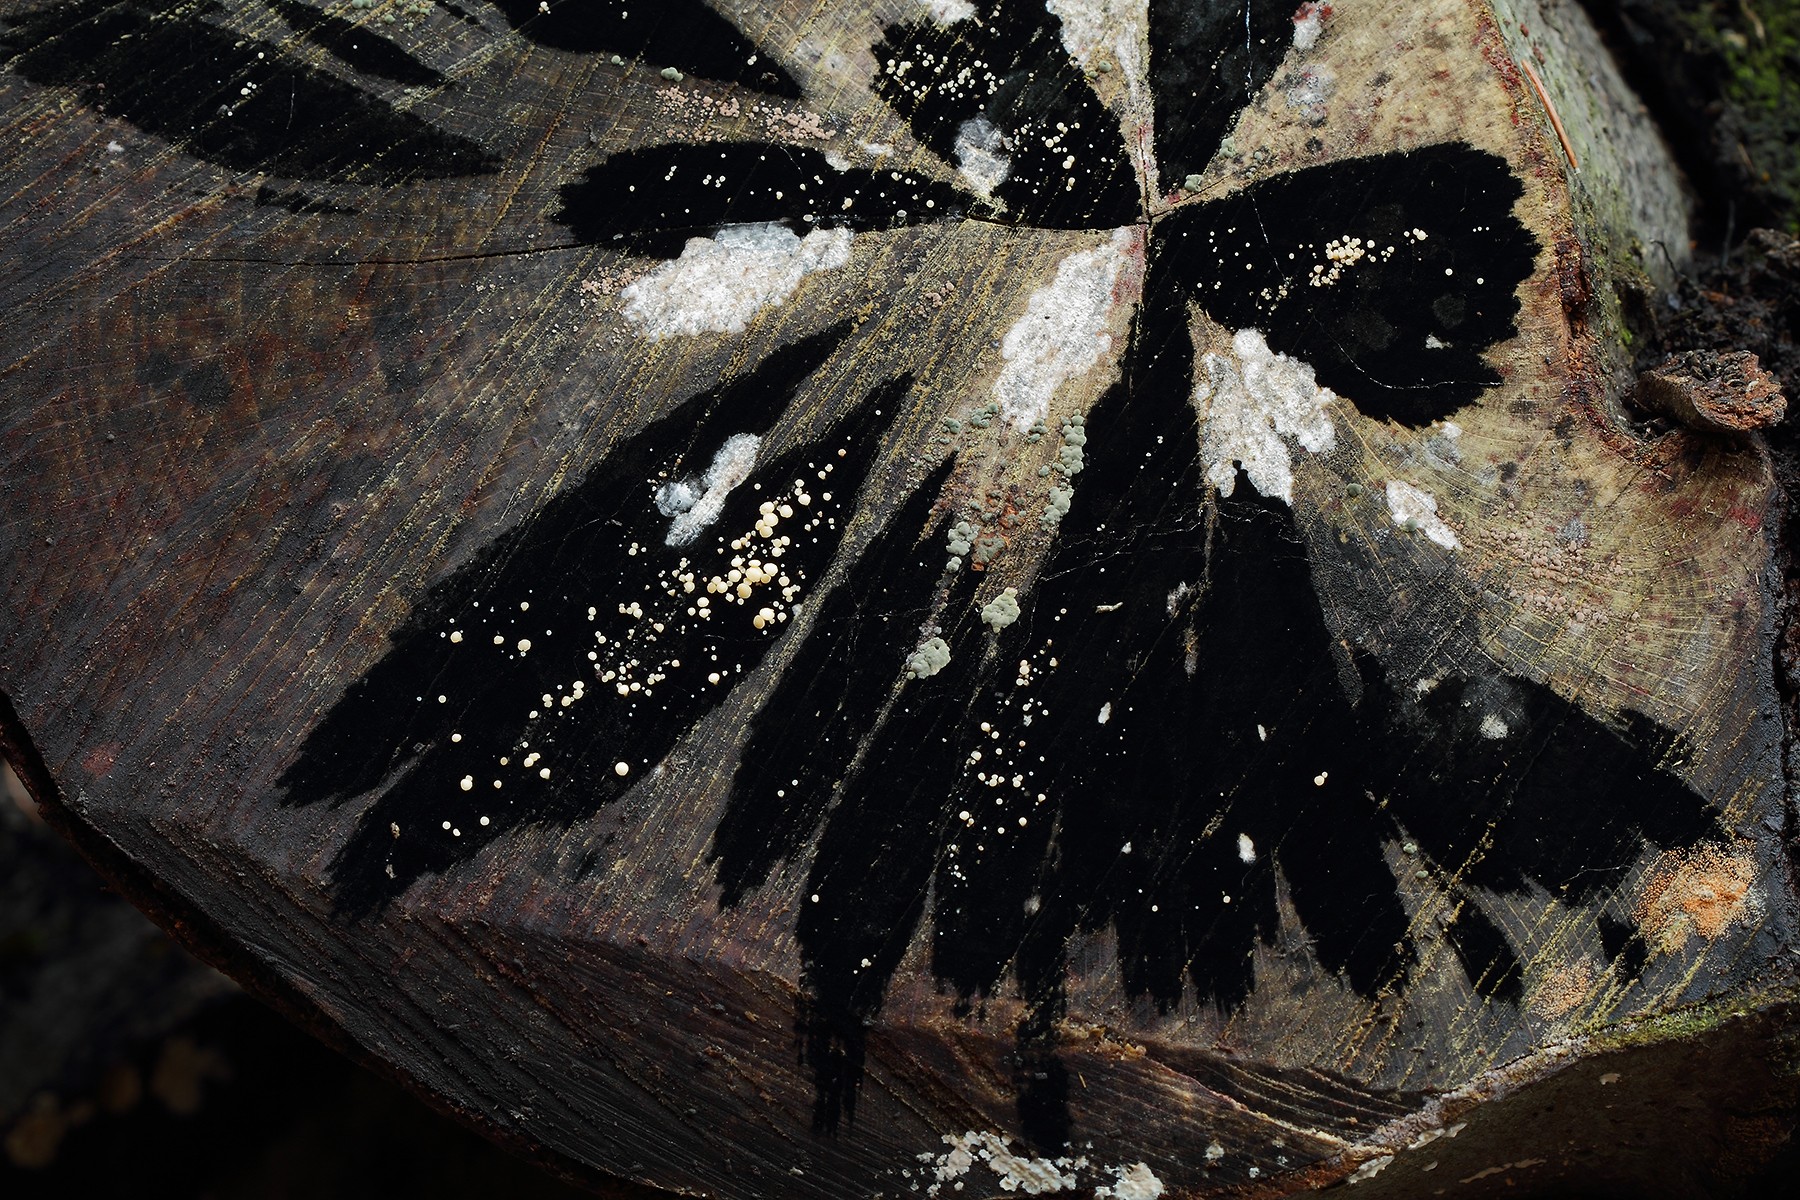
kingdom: Fungi
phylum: Ascomycota
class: Leotiomycetes
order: Helotiales
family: Helotiaceae
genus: Bispora
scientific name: Bispora pallescens
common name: måtte-snitskive
